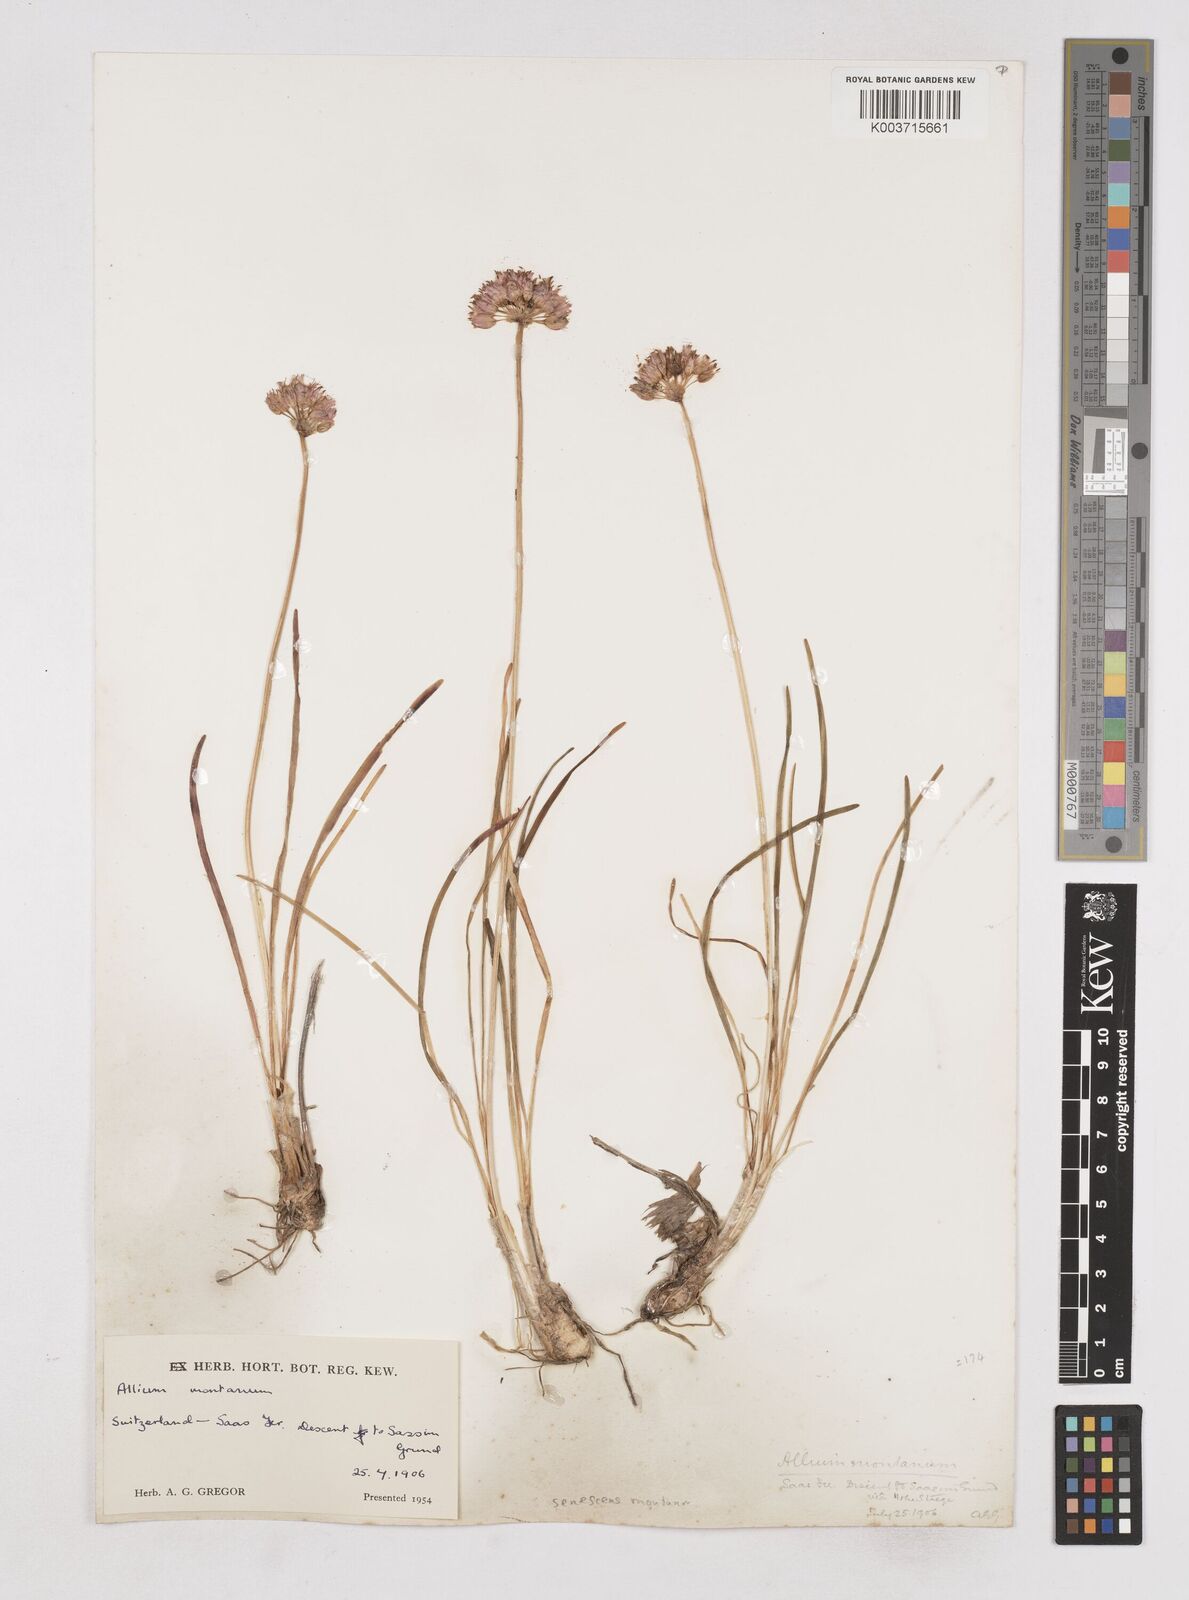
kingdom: Plantae
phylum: Tracheophyta
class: Liliopsida
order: Asparagales
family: Amaryllidaceae
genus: Allium
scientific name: Allium
